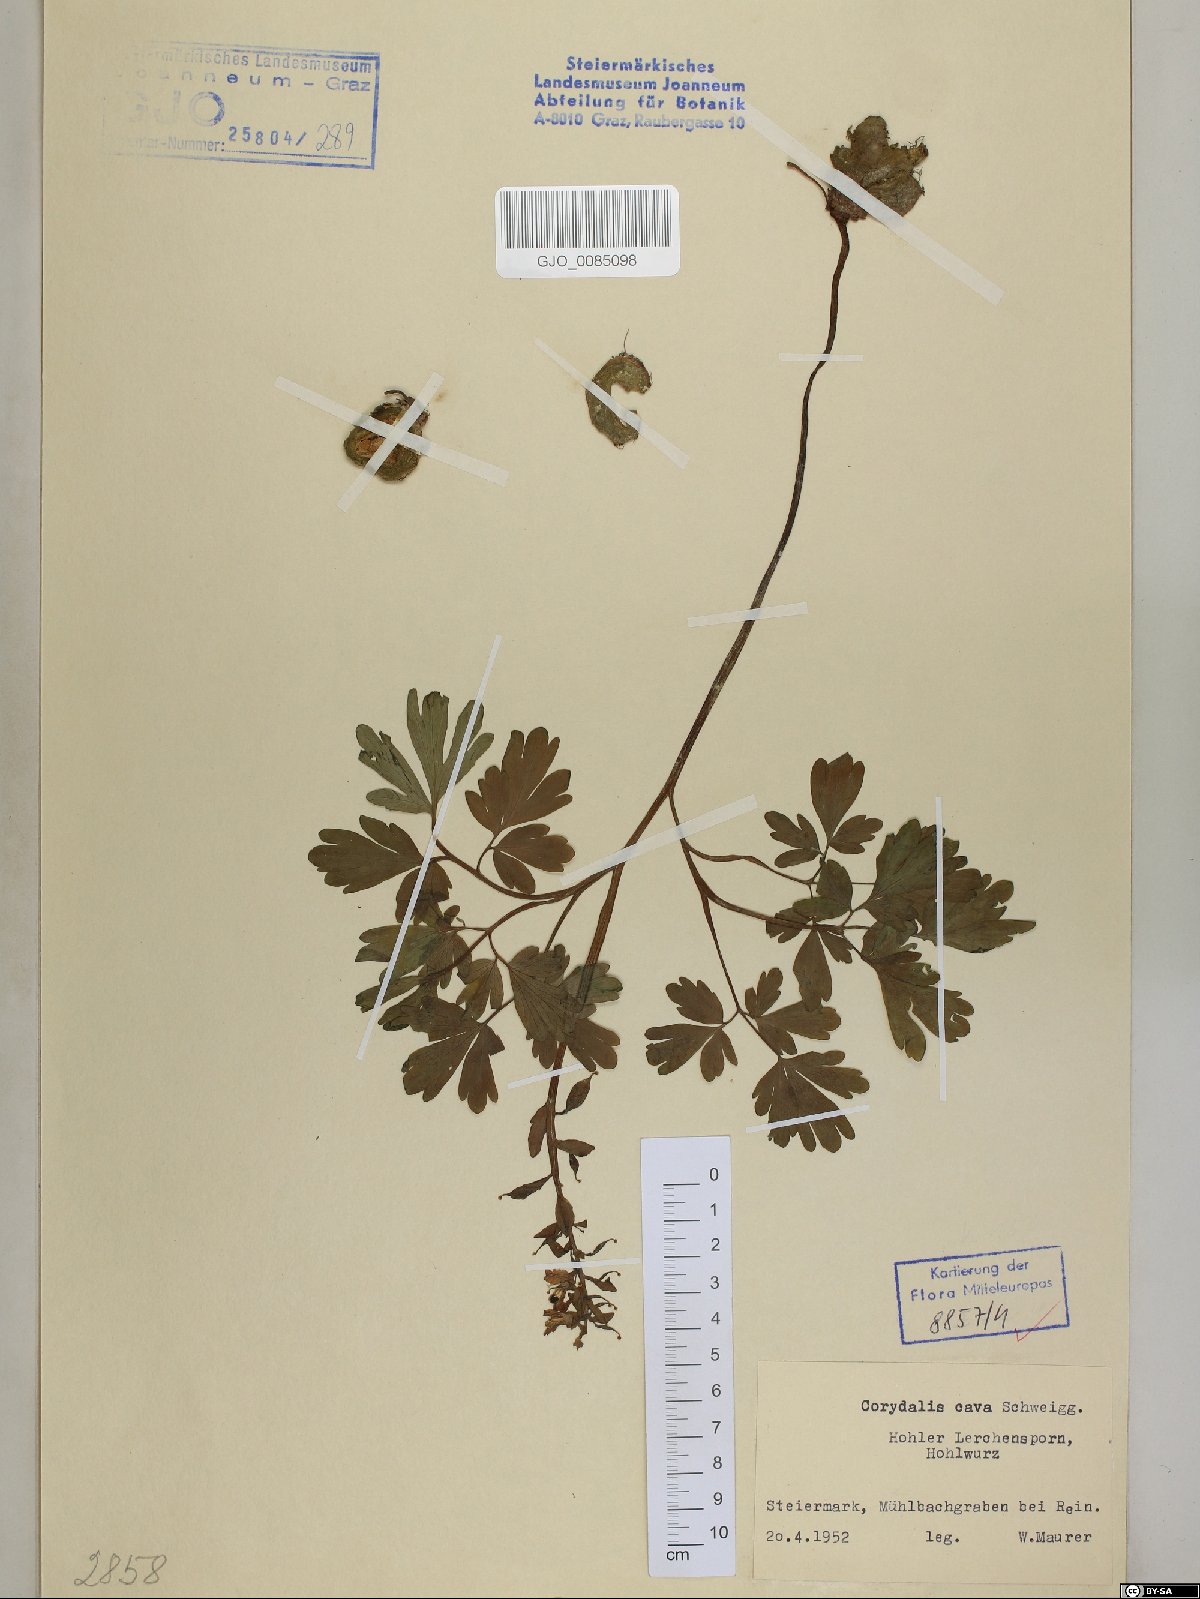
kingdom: Plantae
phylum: Tracheophyta
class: Magnoliopsida
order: Ranunculales
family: Papaveraceae
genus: Corydalis
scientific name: Corydalis cava
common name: Hollowroot
